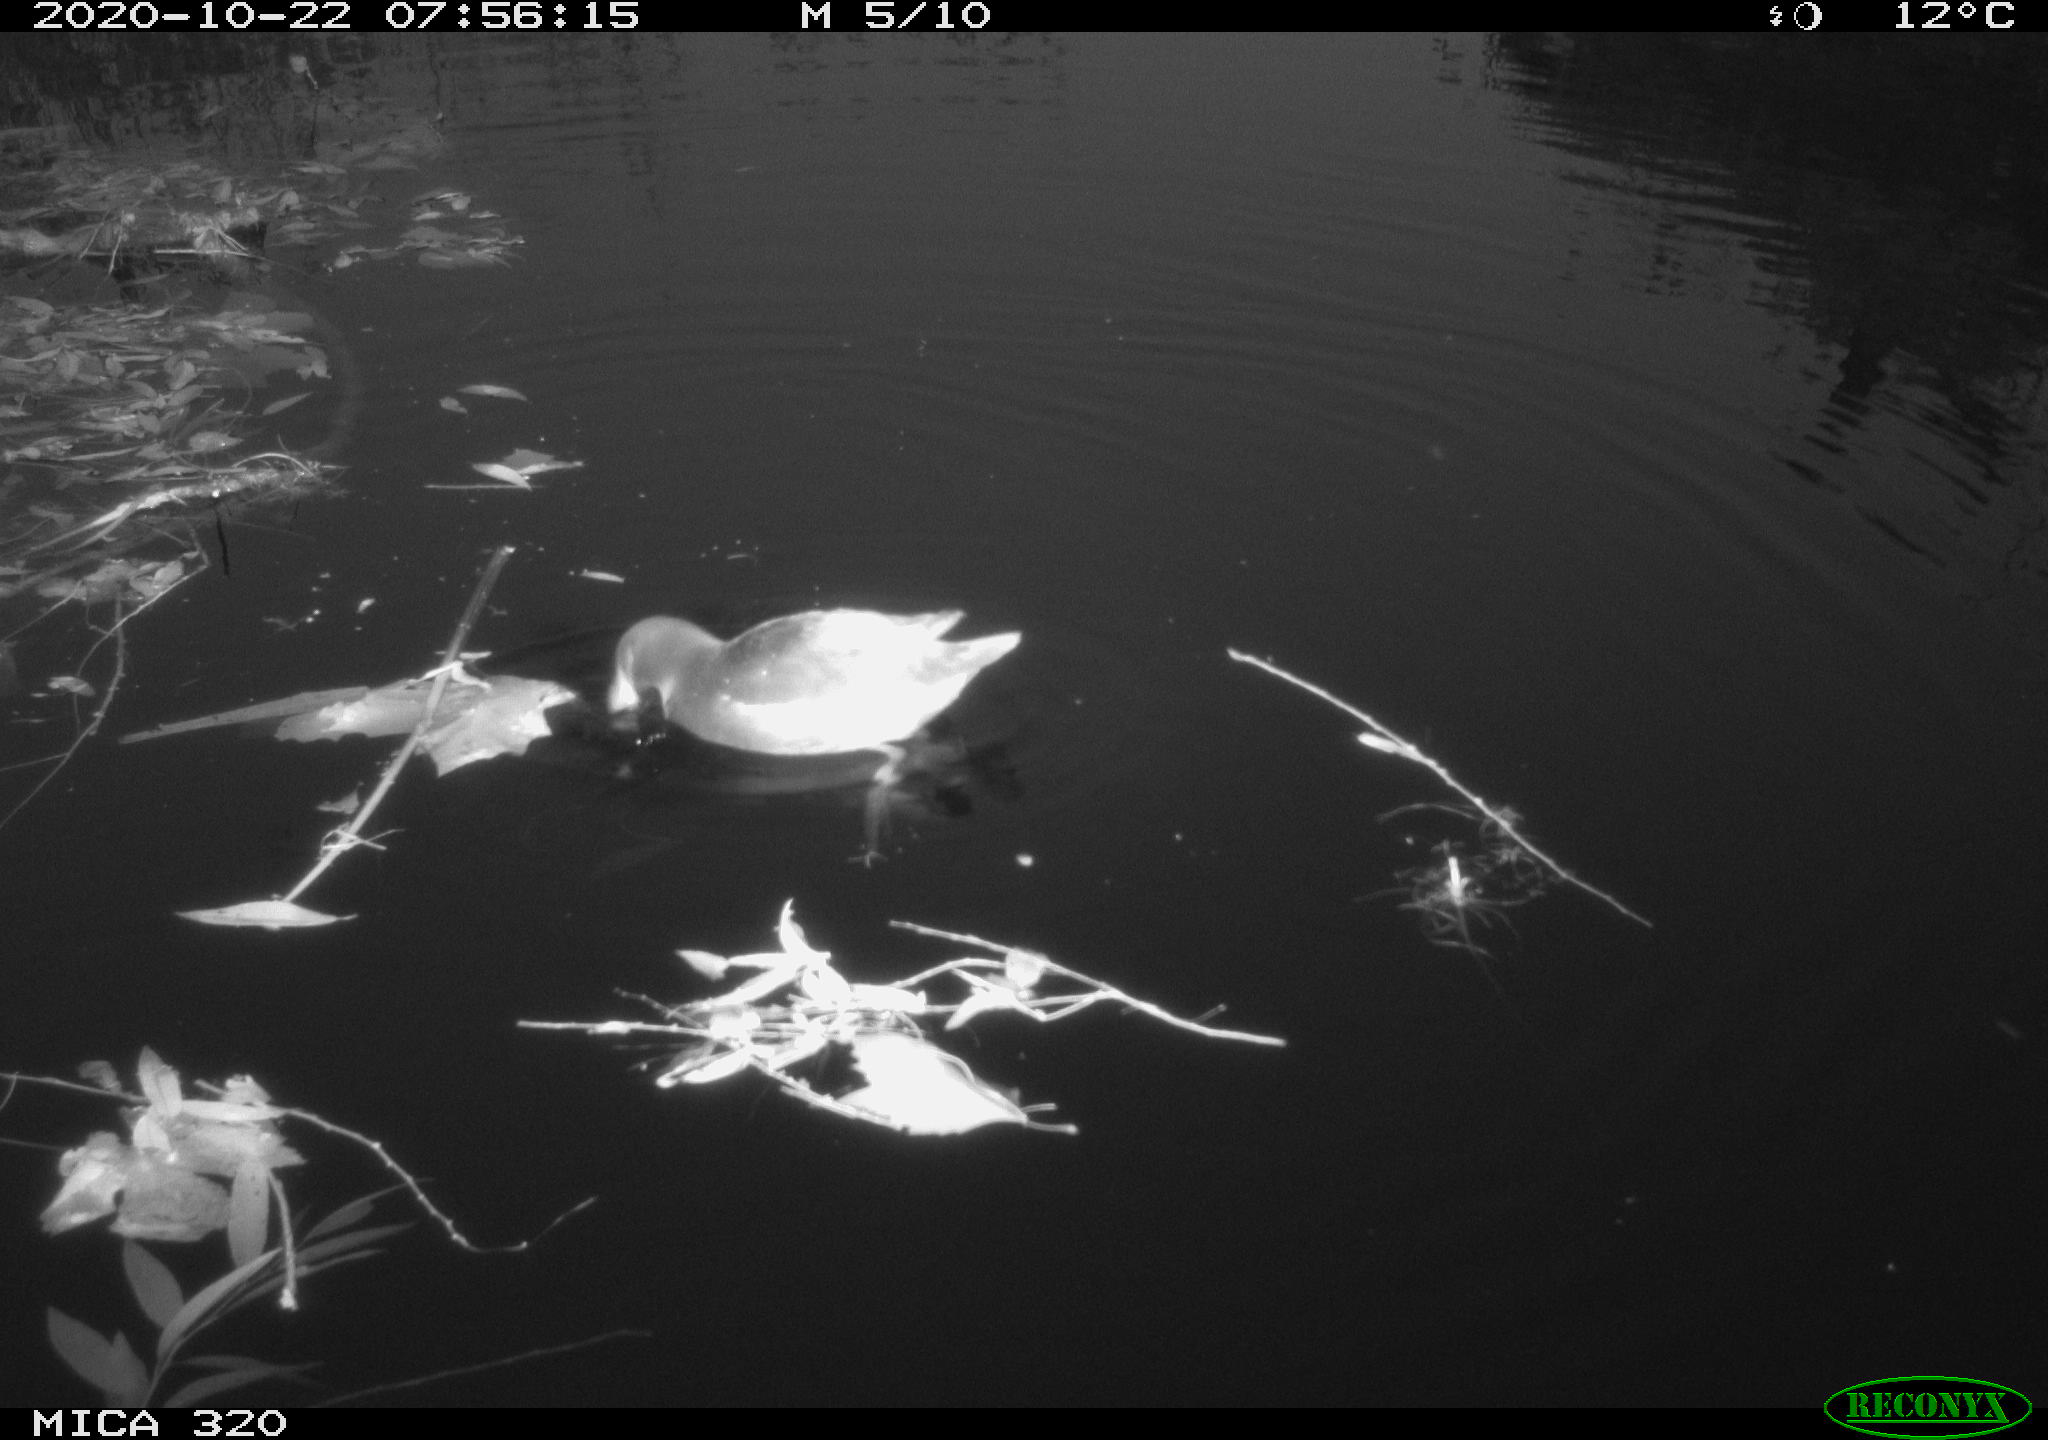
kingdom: Animalia
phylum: Chordata
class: Aves
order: Gruiformes
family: Rallidae
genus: Gallinula
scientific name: Gallinula chloropus
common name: Common moorhen
